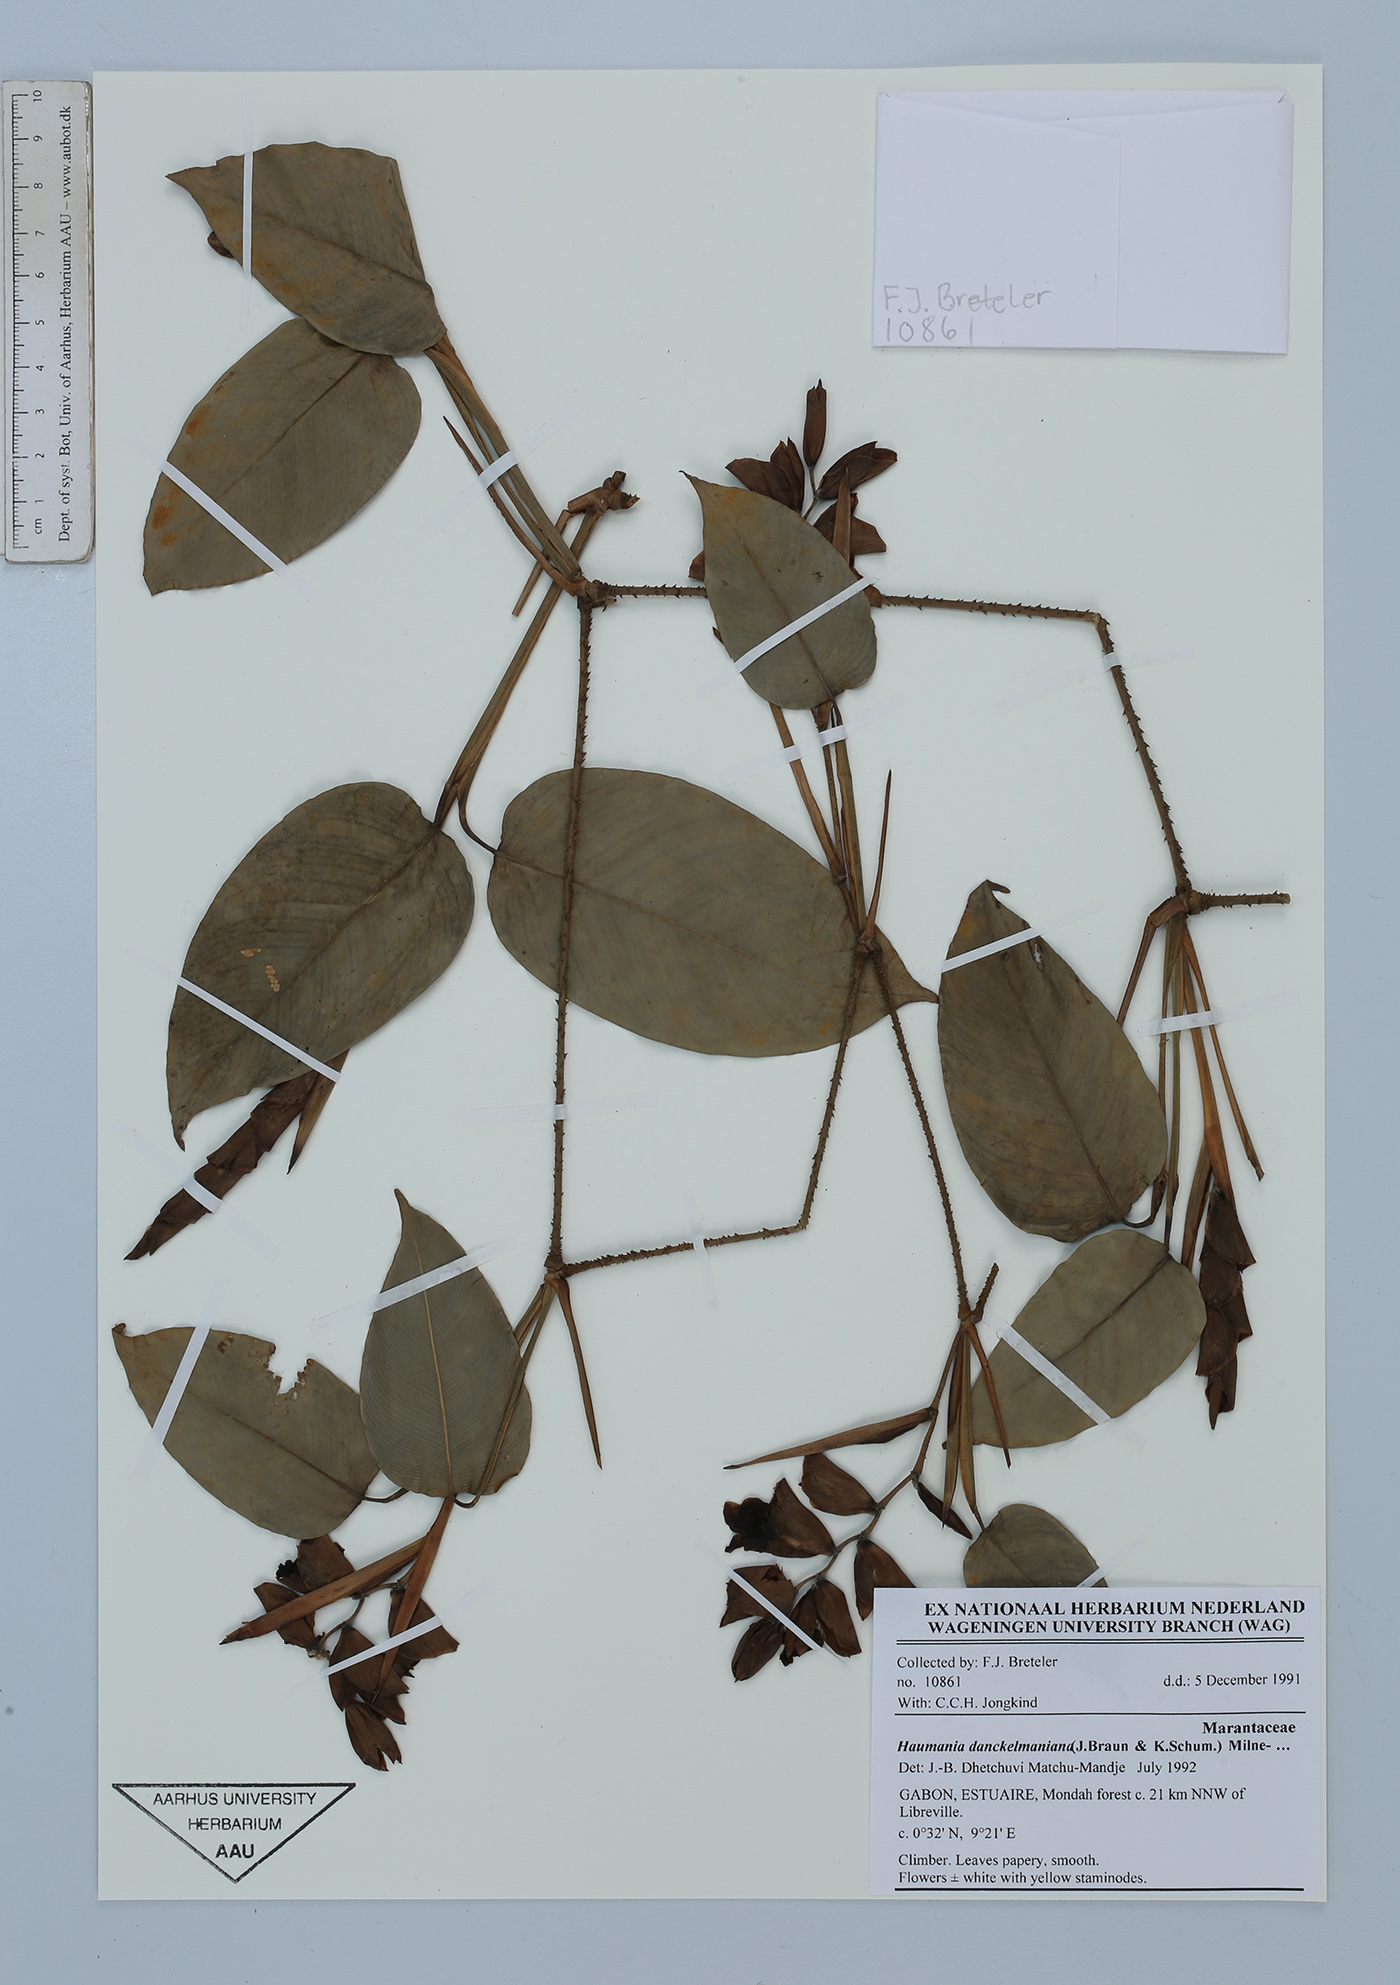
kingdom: Plantae
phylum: Tracheophyta
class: Liliopsida
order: Zingiberales
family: Marantaceae
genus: Haumania
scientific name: Haumania danckelmaniana
